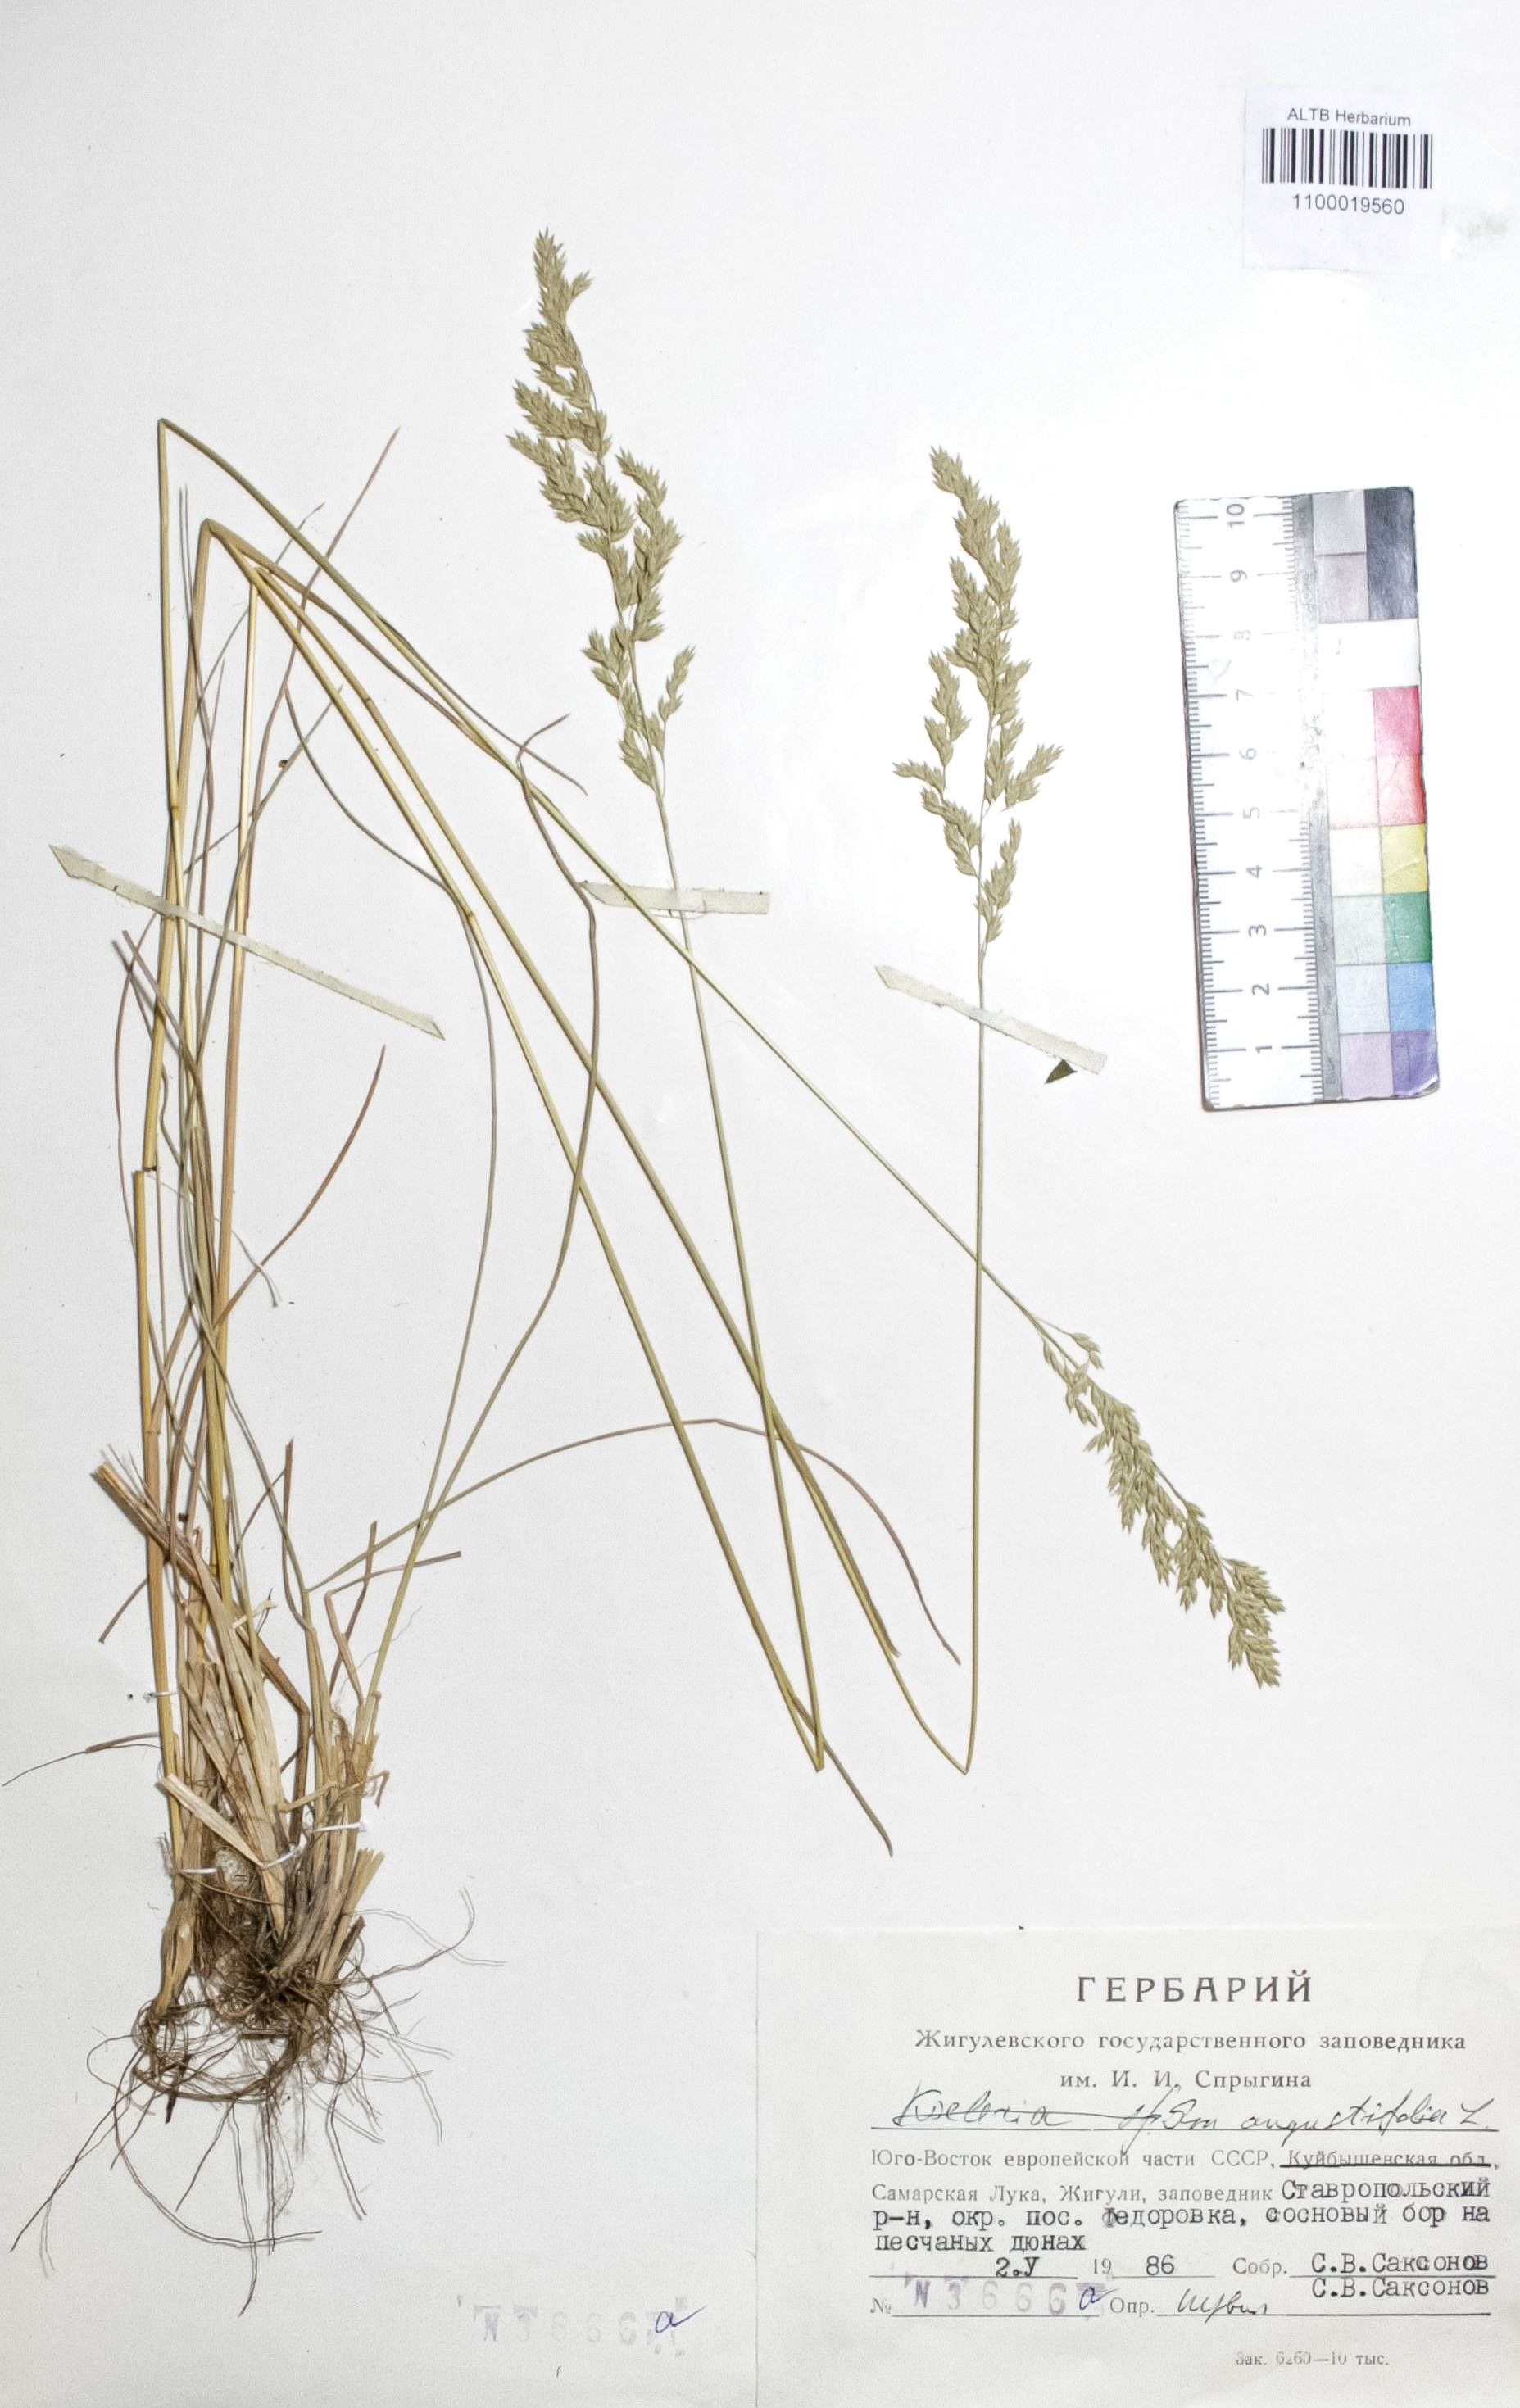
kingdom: Plantae
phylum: Tracheophyta
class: Liliopsida
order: Poales
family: Poaceae
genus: Poa
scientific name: Poa angustifolia
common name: Narrow-leaved meadow-grass
